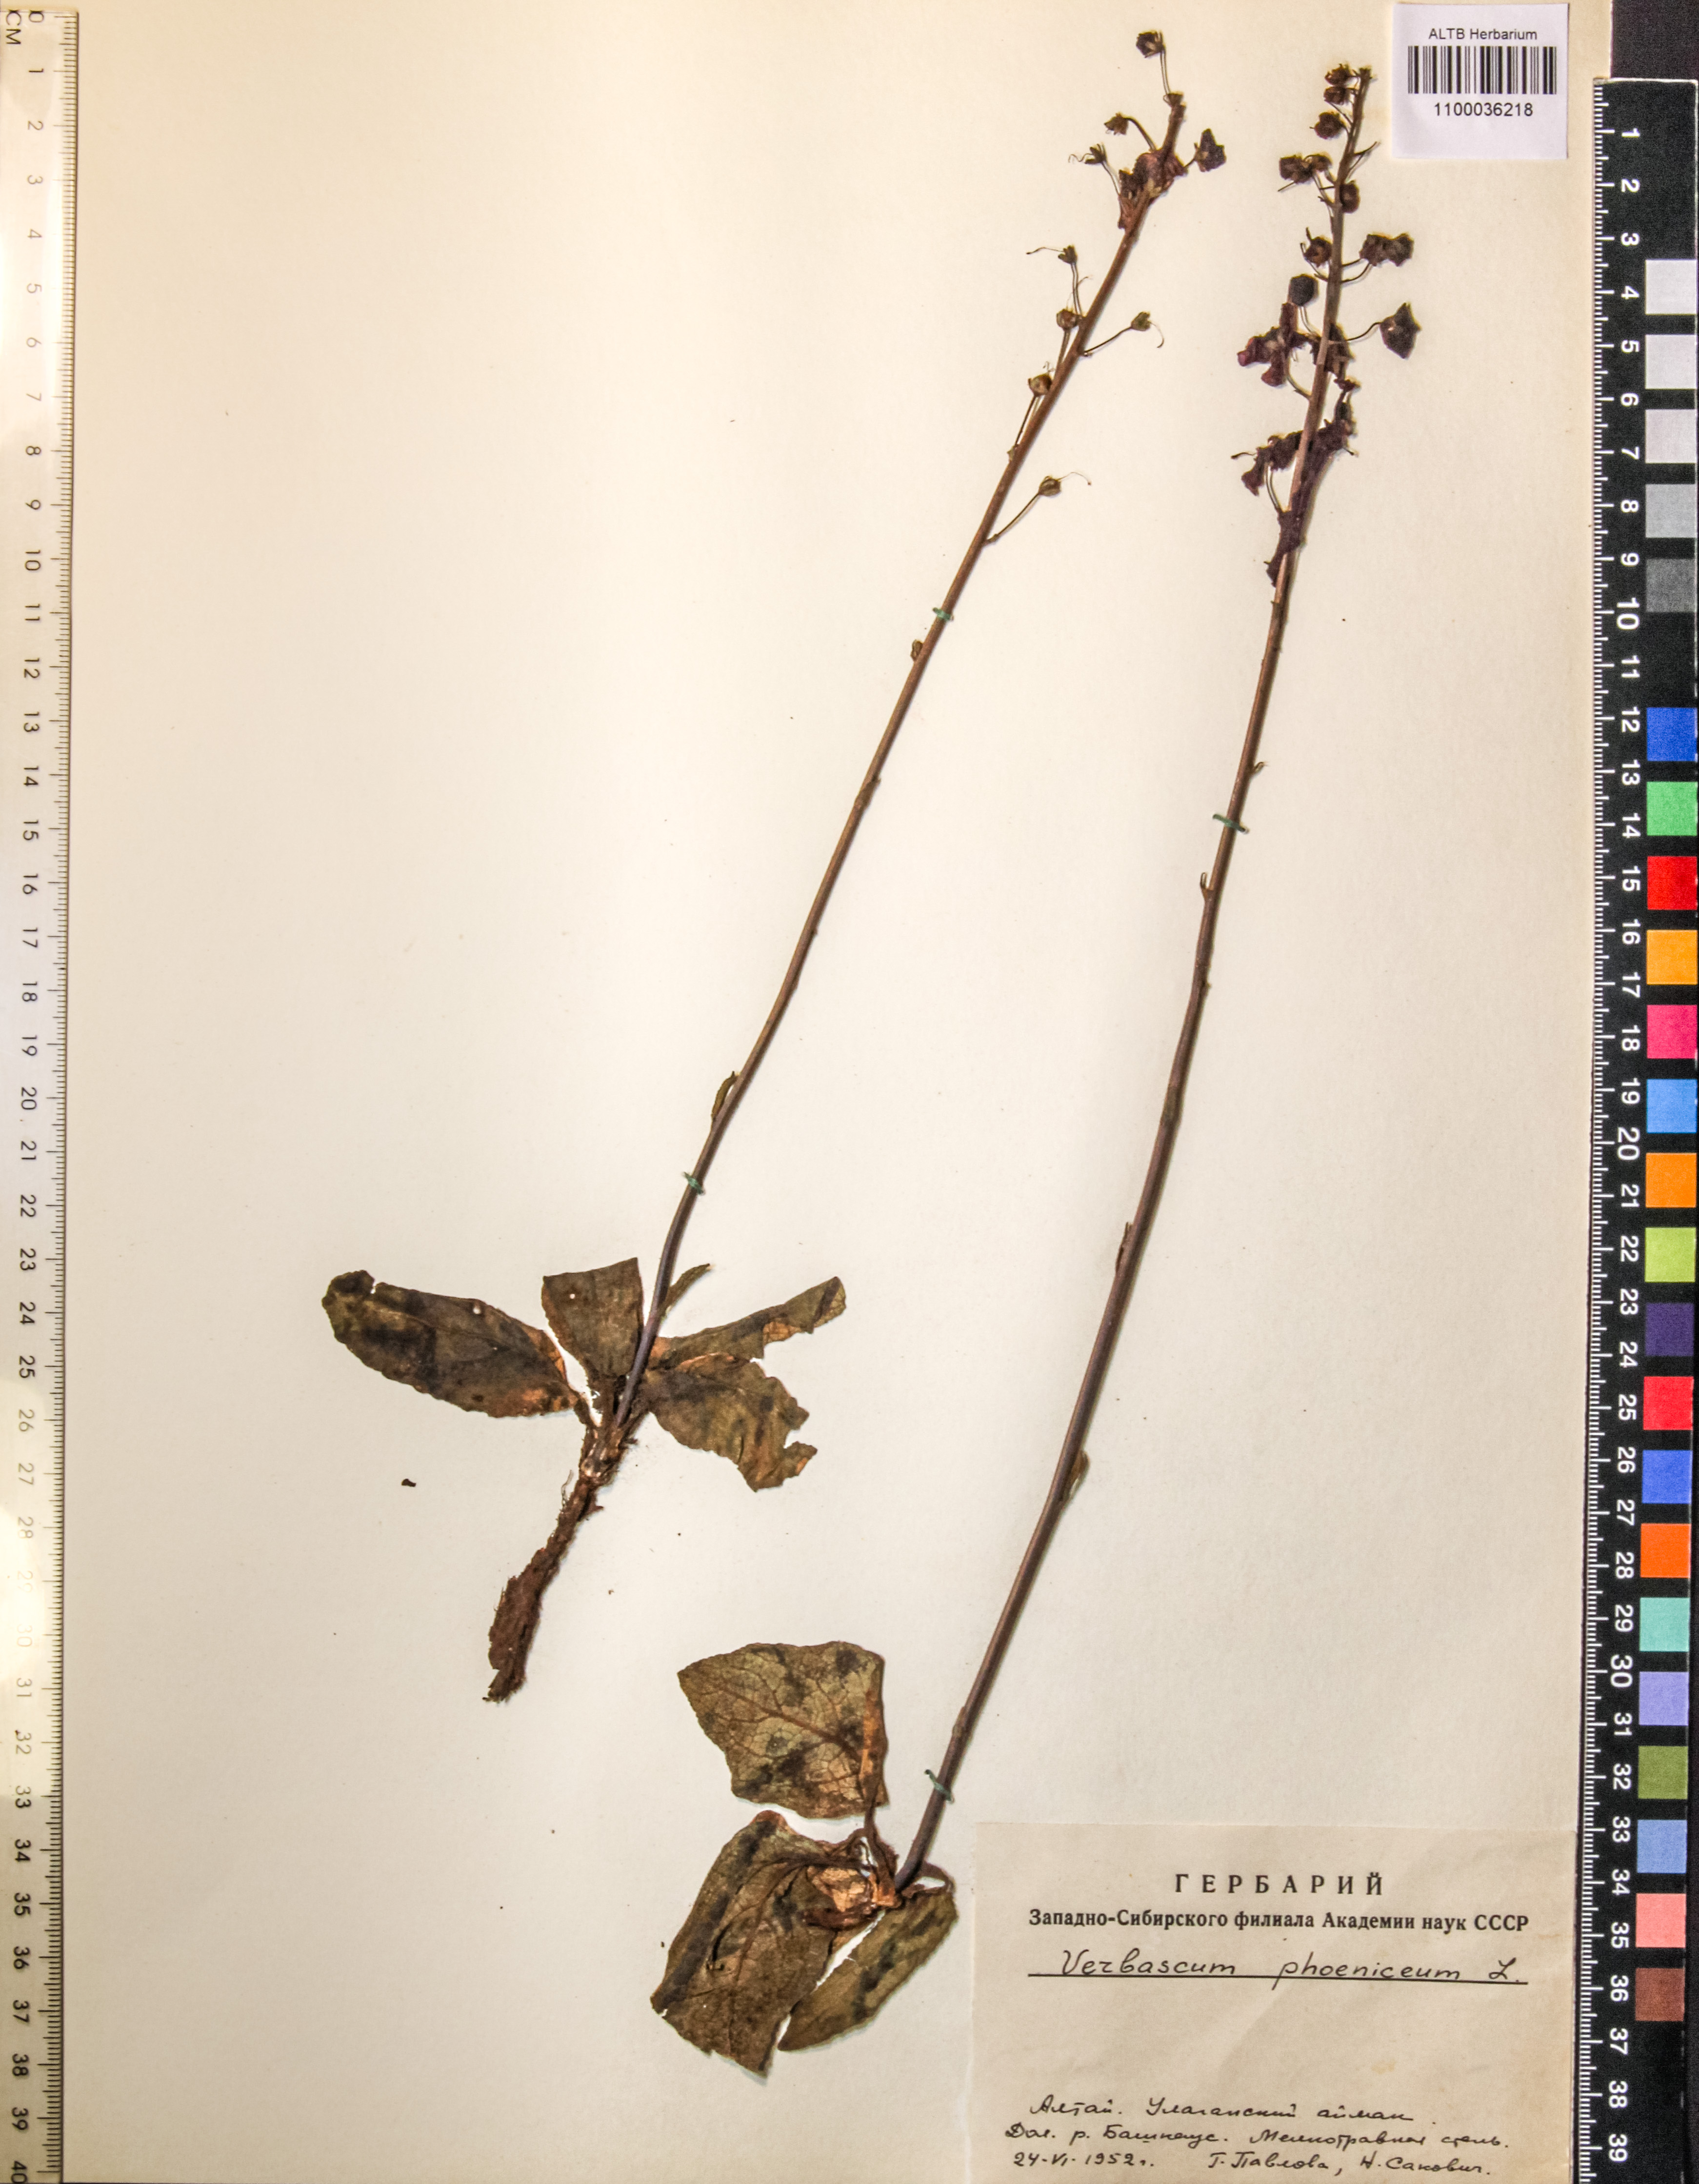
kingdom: Plantae
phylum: Tracheophyta
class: Magnoliopsida
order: Lamiales
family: Scrophulariaceae
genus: Verbascum
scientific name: Verbascum phoeniceum
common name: Purple mullein
